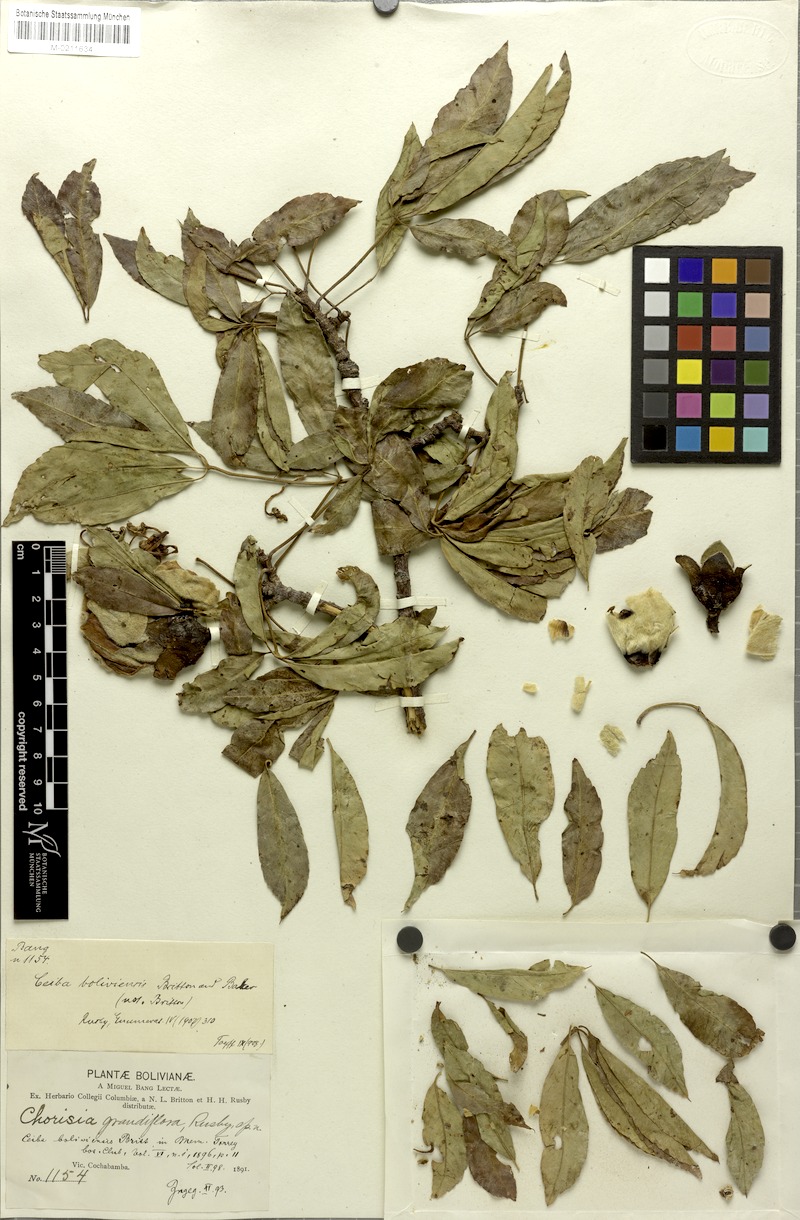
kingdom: Plantae
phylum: Tracheophyta
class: Magnoliopsida
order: Malvales
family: Malvaceae
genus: Ceiba
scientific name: Ceiba boliviana
